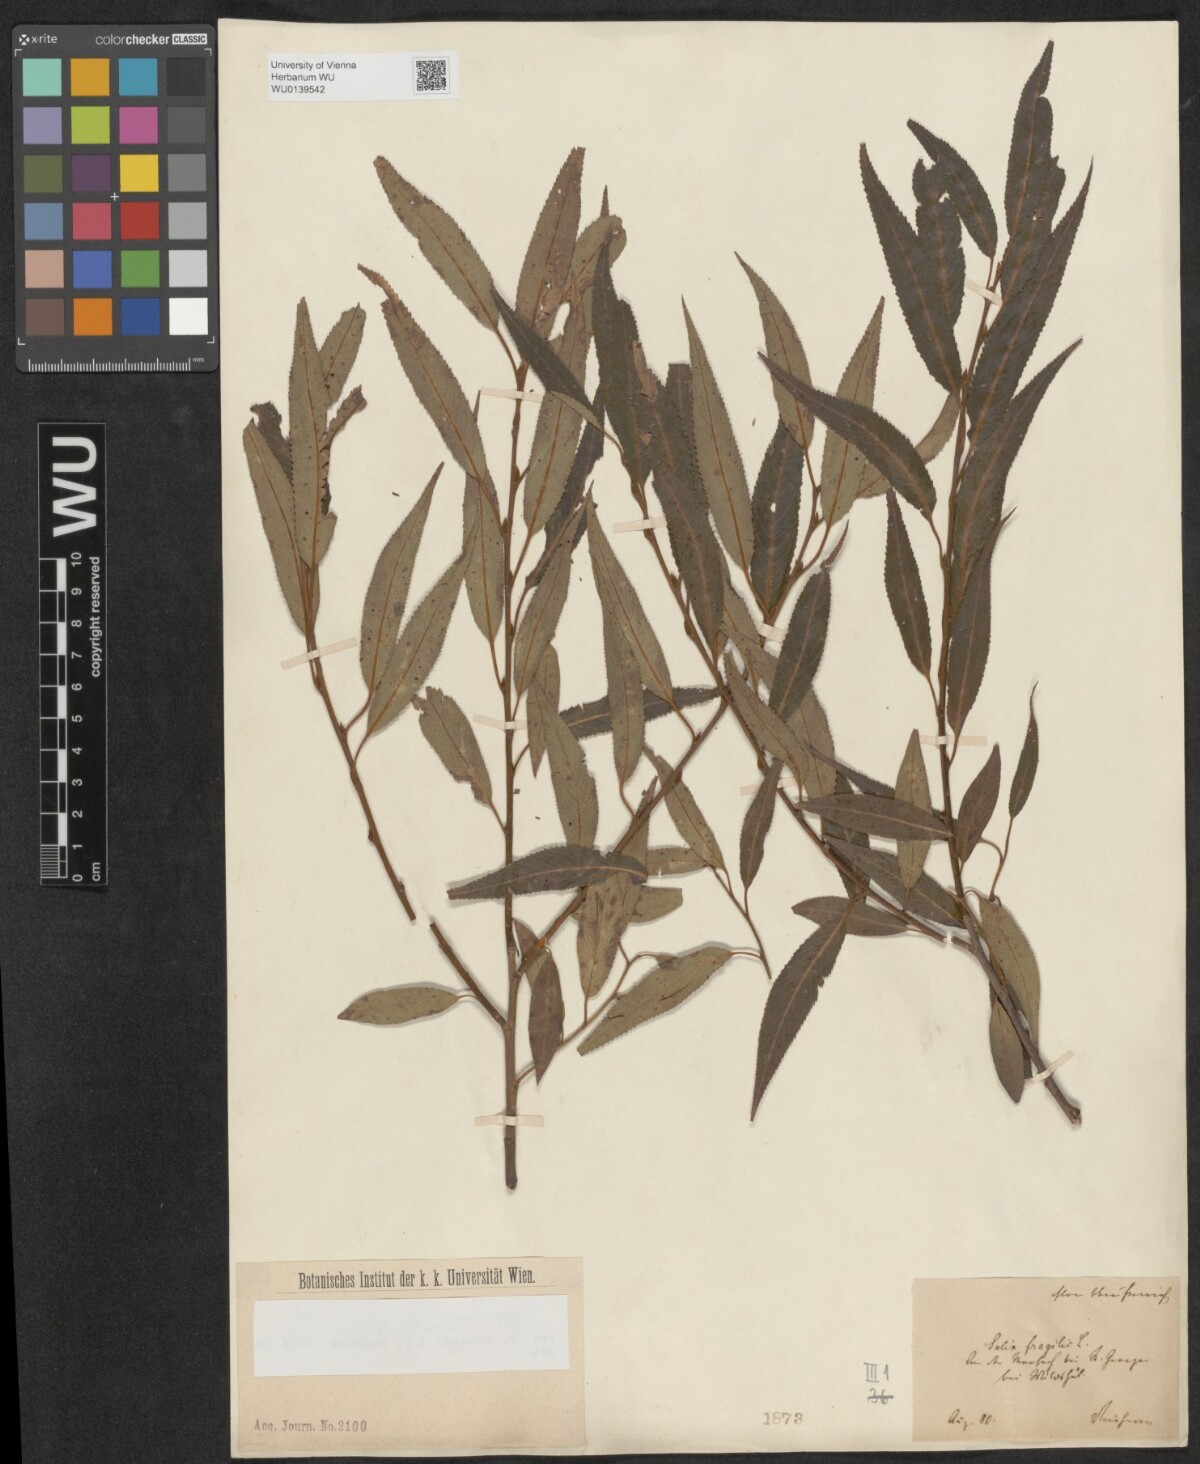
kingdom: Plantae
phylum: Tracheophyta
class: Magnoliopsida
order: Malpighiales
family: Salicaceae
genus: Salix
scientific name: Salix rubens
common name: Hybrid crack willow
